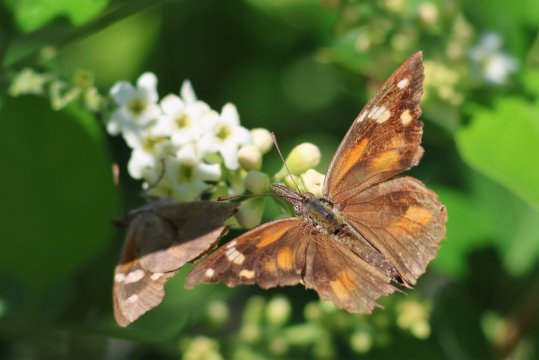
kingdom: Animalia
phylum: Arthropoda
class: Insecta
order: Lepidoptera
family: Nymphalidae
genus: Libytheana
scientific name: Libytheana carinenta
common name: American Snout
